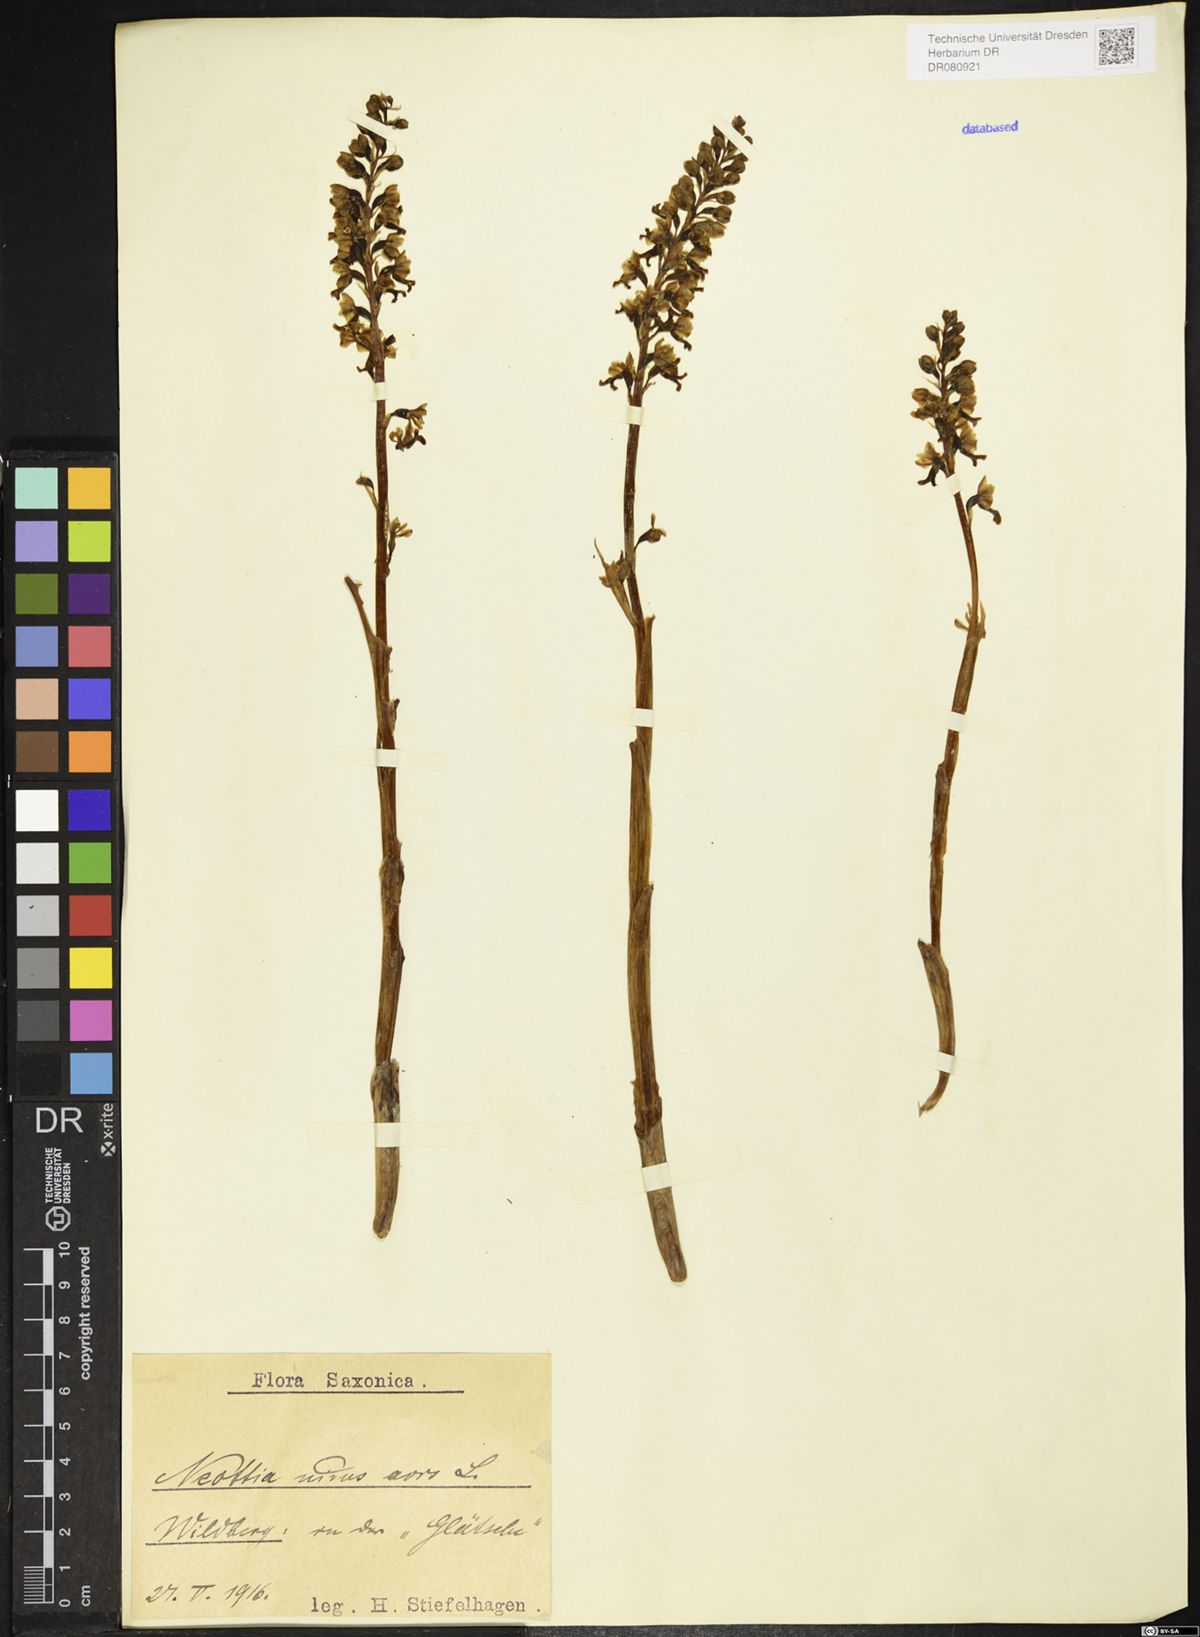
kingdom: Plantae
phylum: Tracheophyta
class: Liliopsida
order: Asparagales
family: Orchidaceae
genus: Neottia
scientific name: Neottia nidus-avis
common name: Bird's-nest orchid
